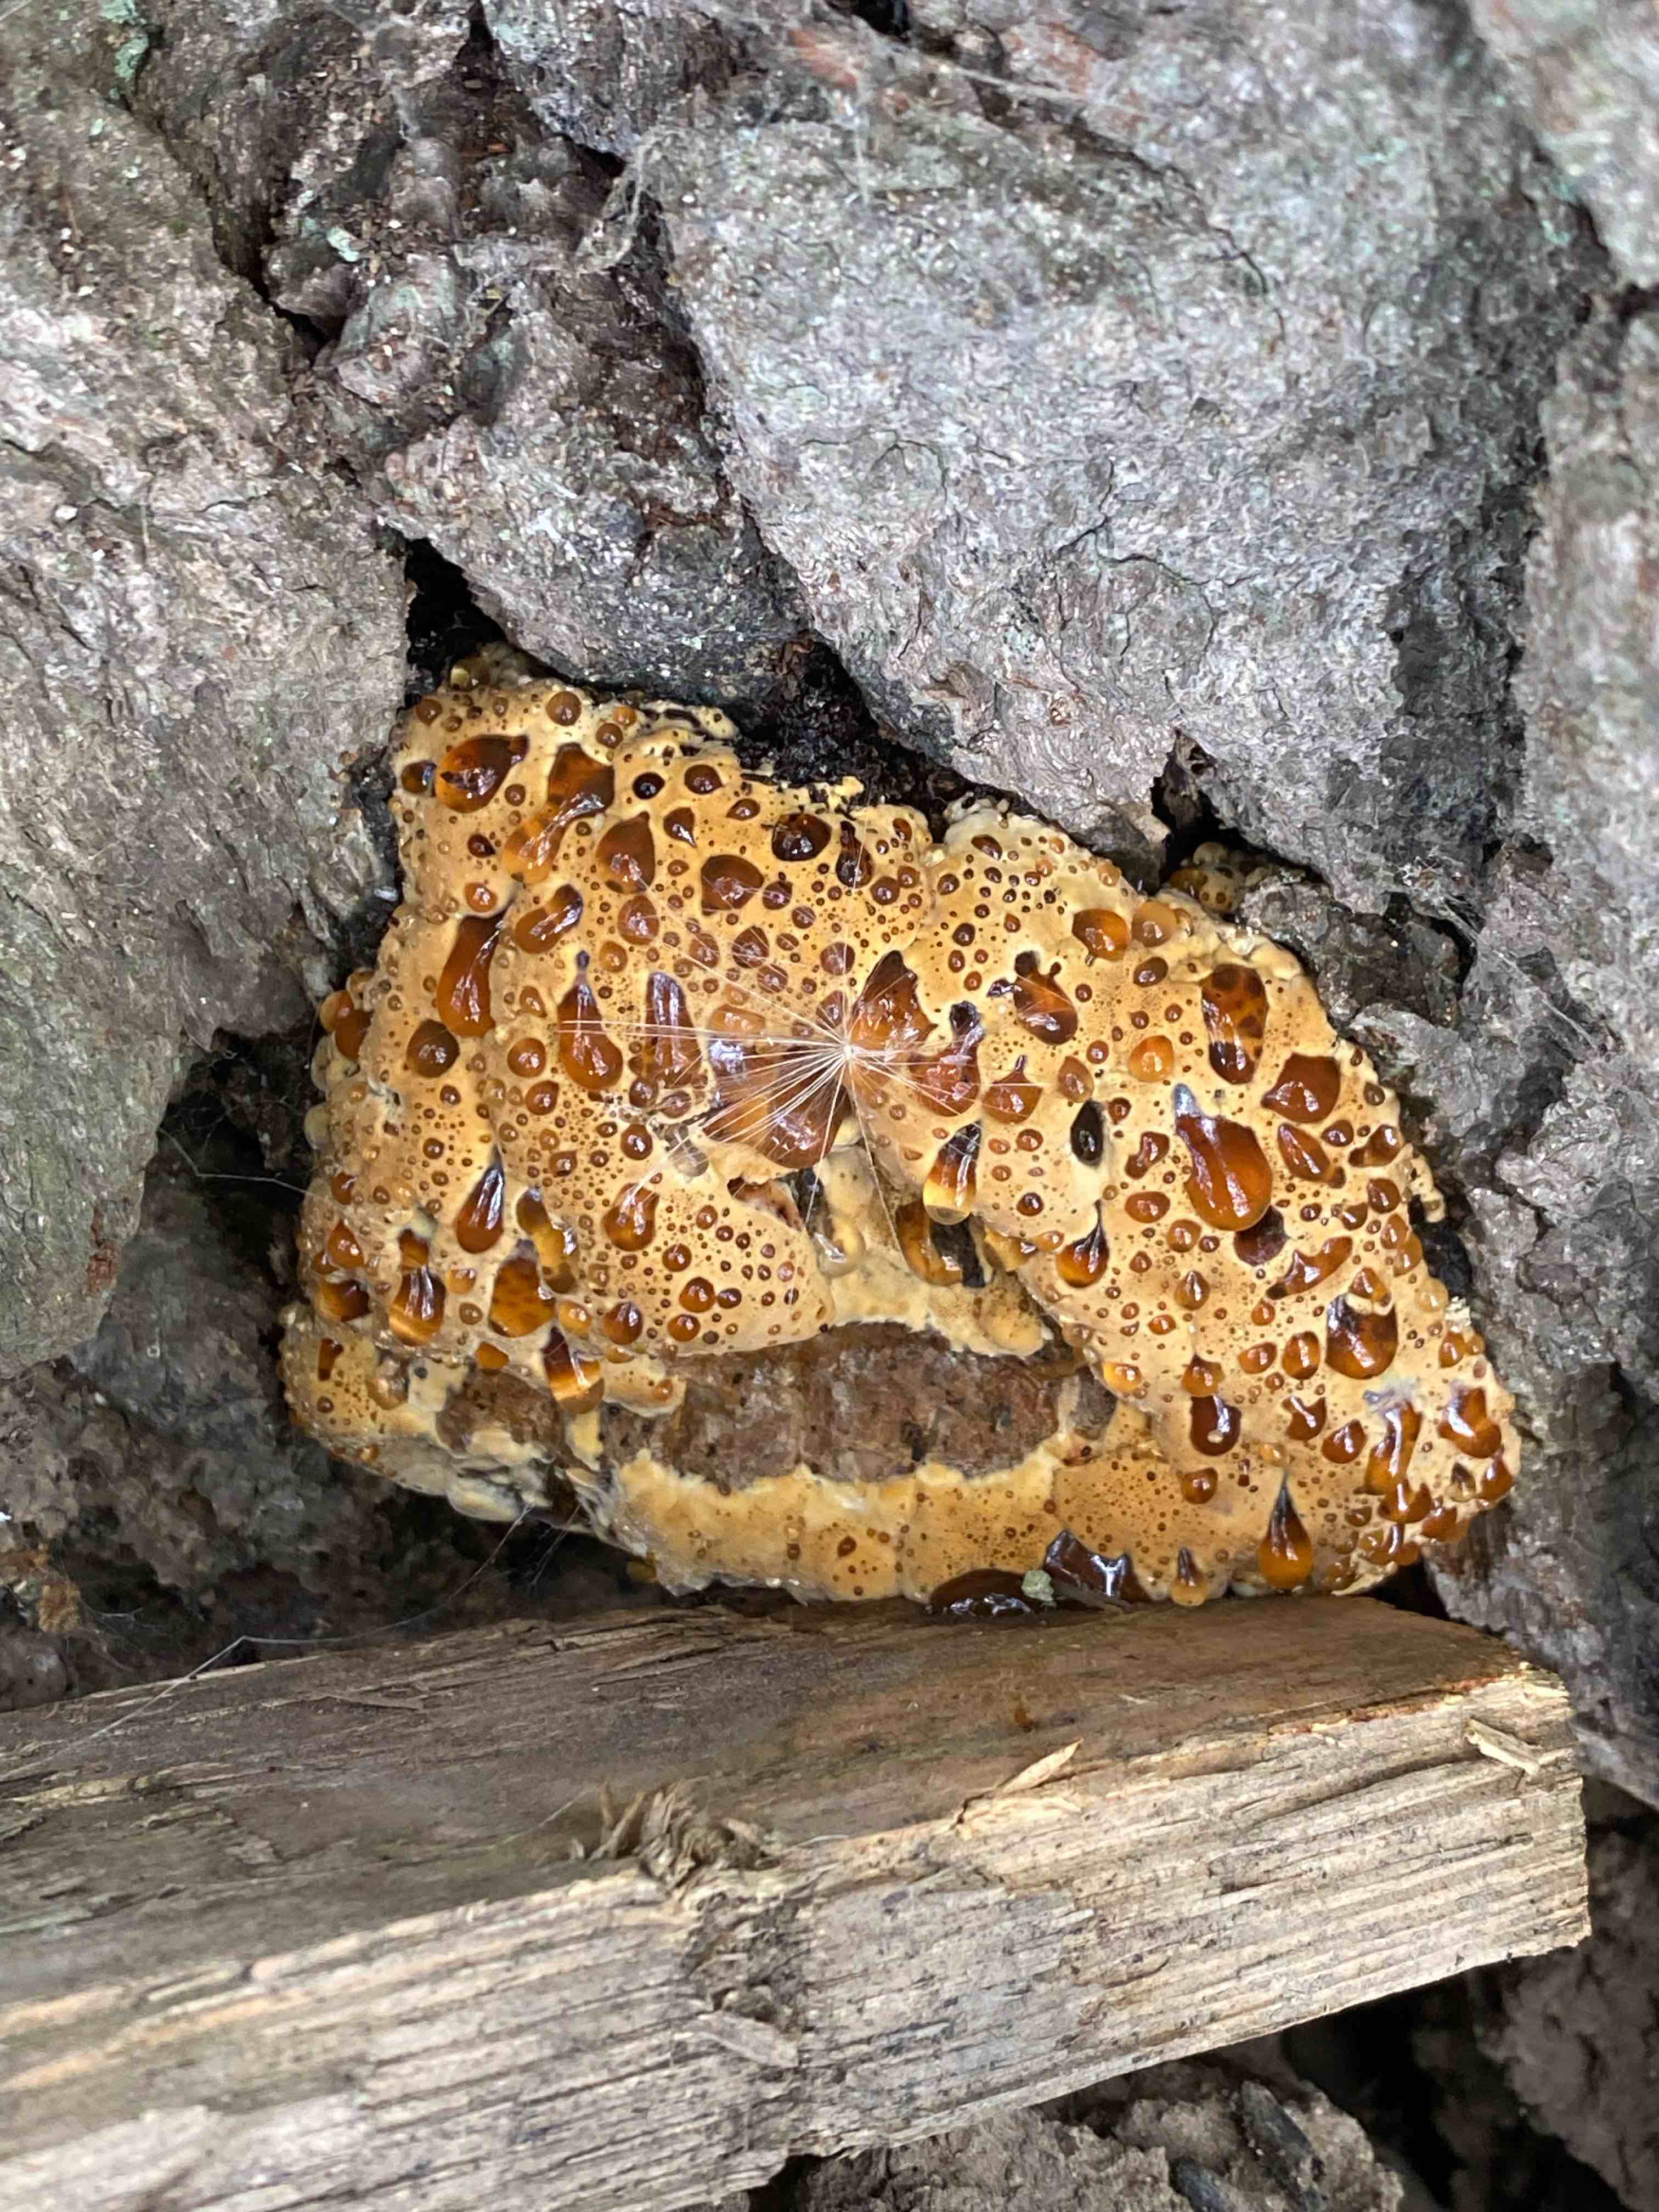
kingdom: Fungi
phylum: Basidiomycota
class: Agaricomycetes
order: Hymenochaetales
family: Hymenochaetaceae
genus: Pseudoinonotus
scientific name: Pseudoinonotus dryadeus
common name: ege-spejlporesvamp
